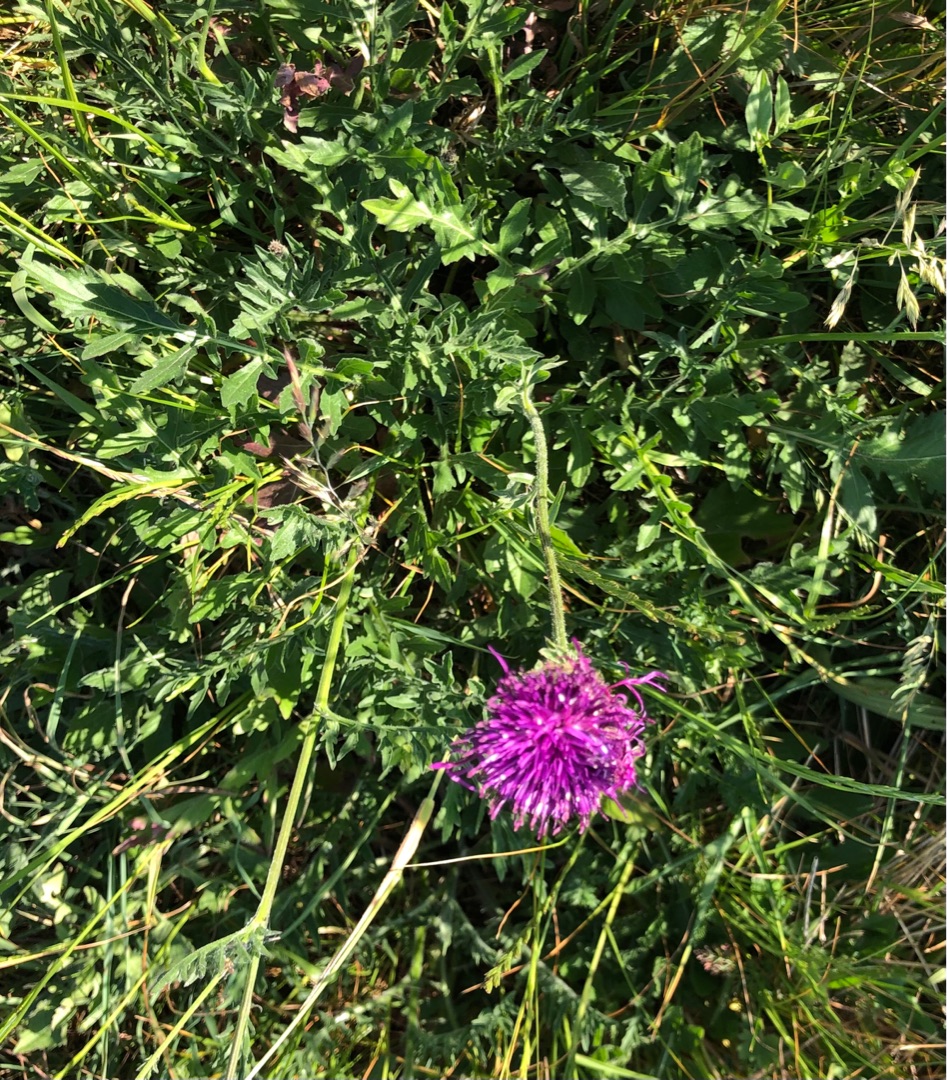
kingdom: Plantae
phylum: Tracheophyta
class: Magnoliopsida
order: Asterales
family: Asteraceae
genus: Centaurea
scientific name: Centaurea scabiosa
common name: Stor knopurt
